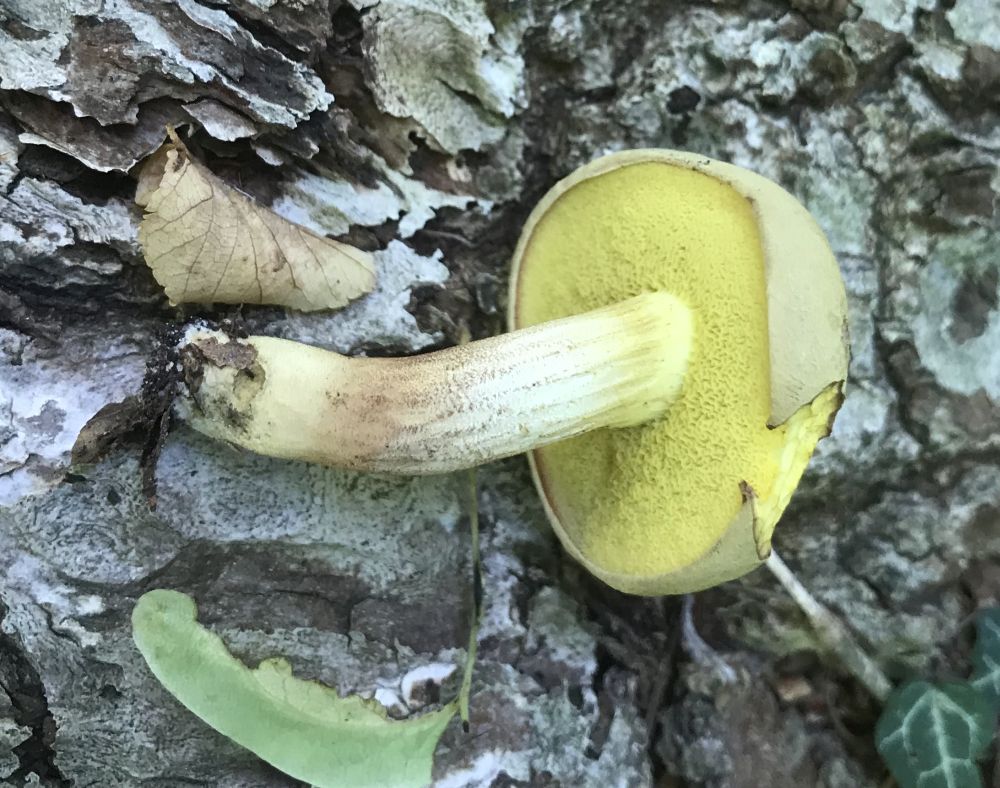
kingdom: Fungi
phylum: Basidiomycota
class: Agaricomycetes
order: Boletales
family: Boletaceae
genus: Xerocomus
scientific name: Xerocomus subtomentosus
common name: filtet rørhat
